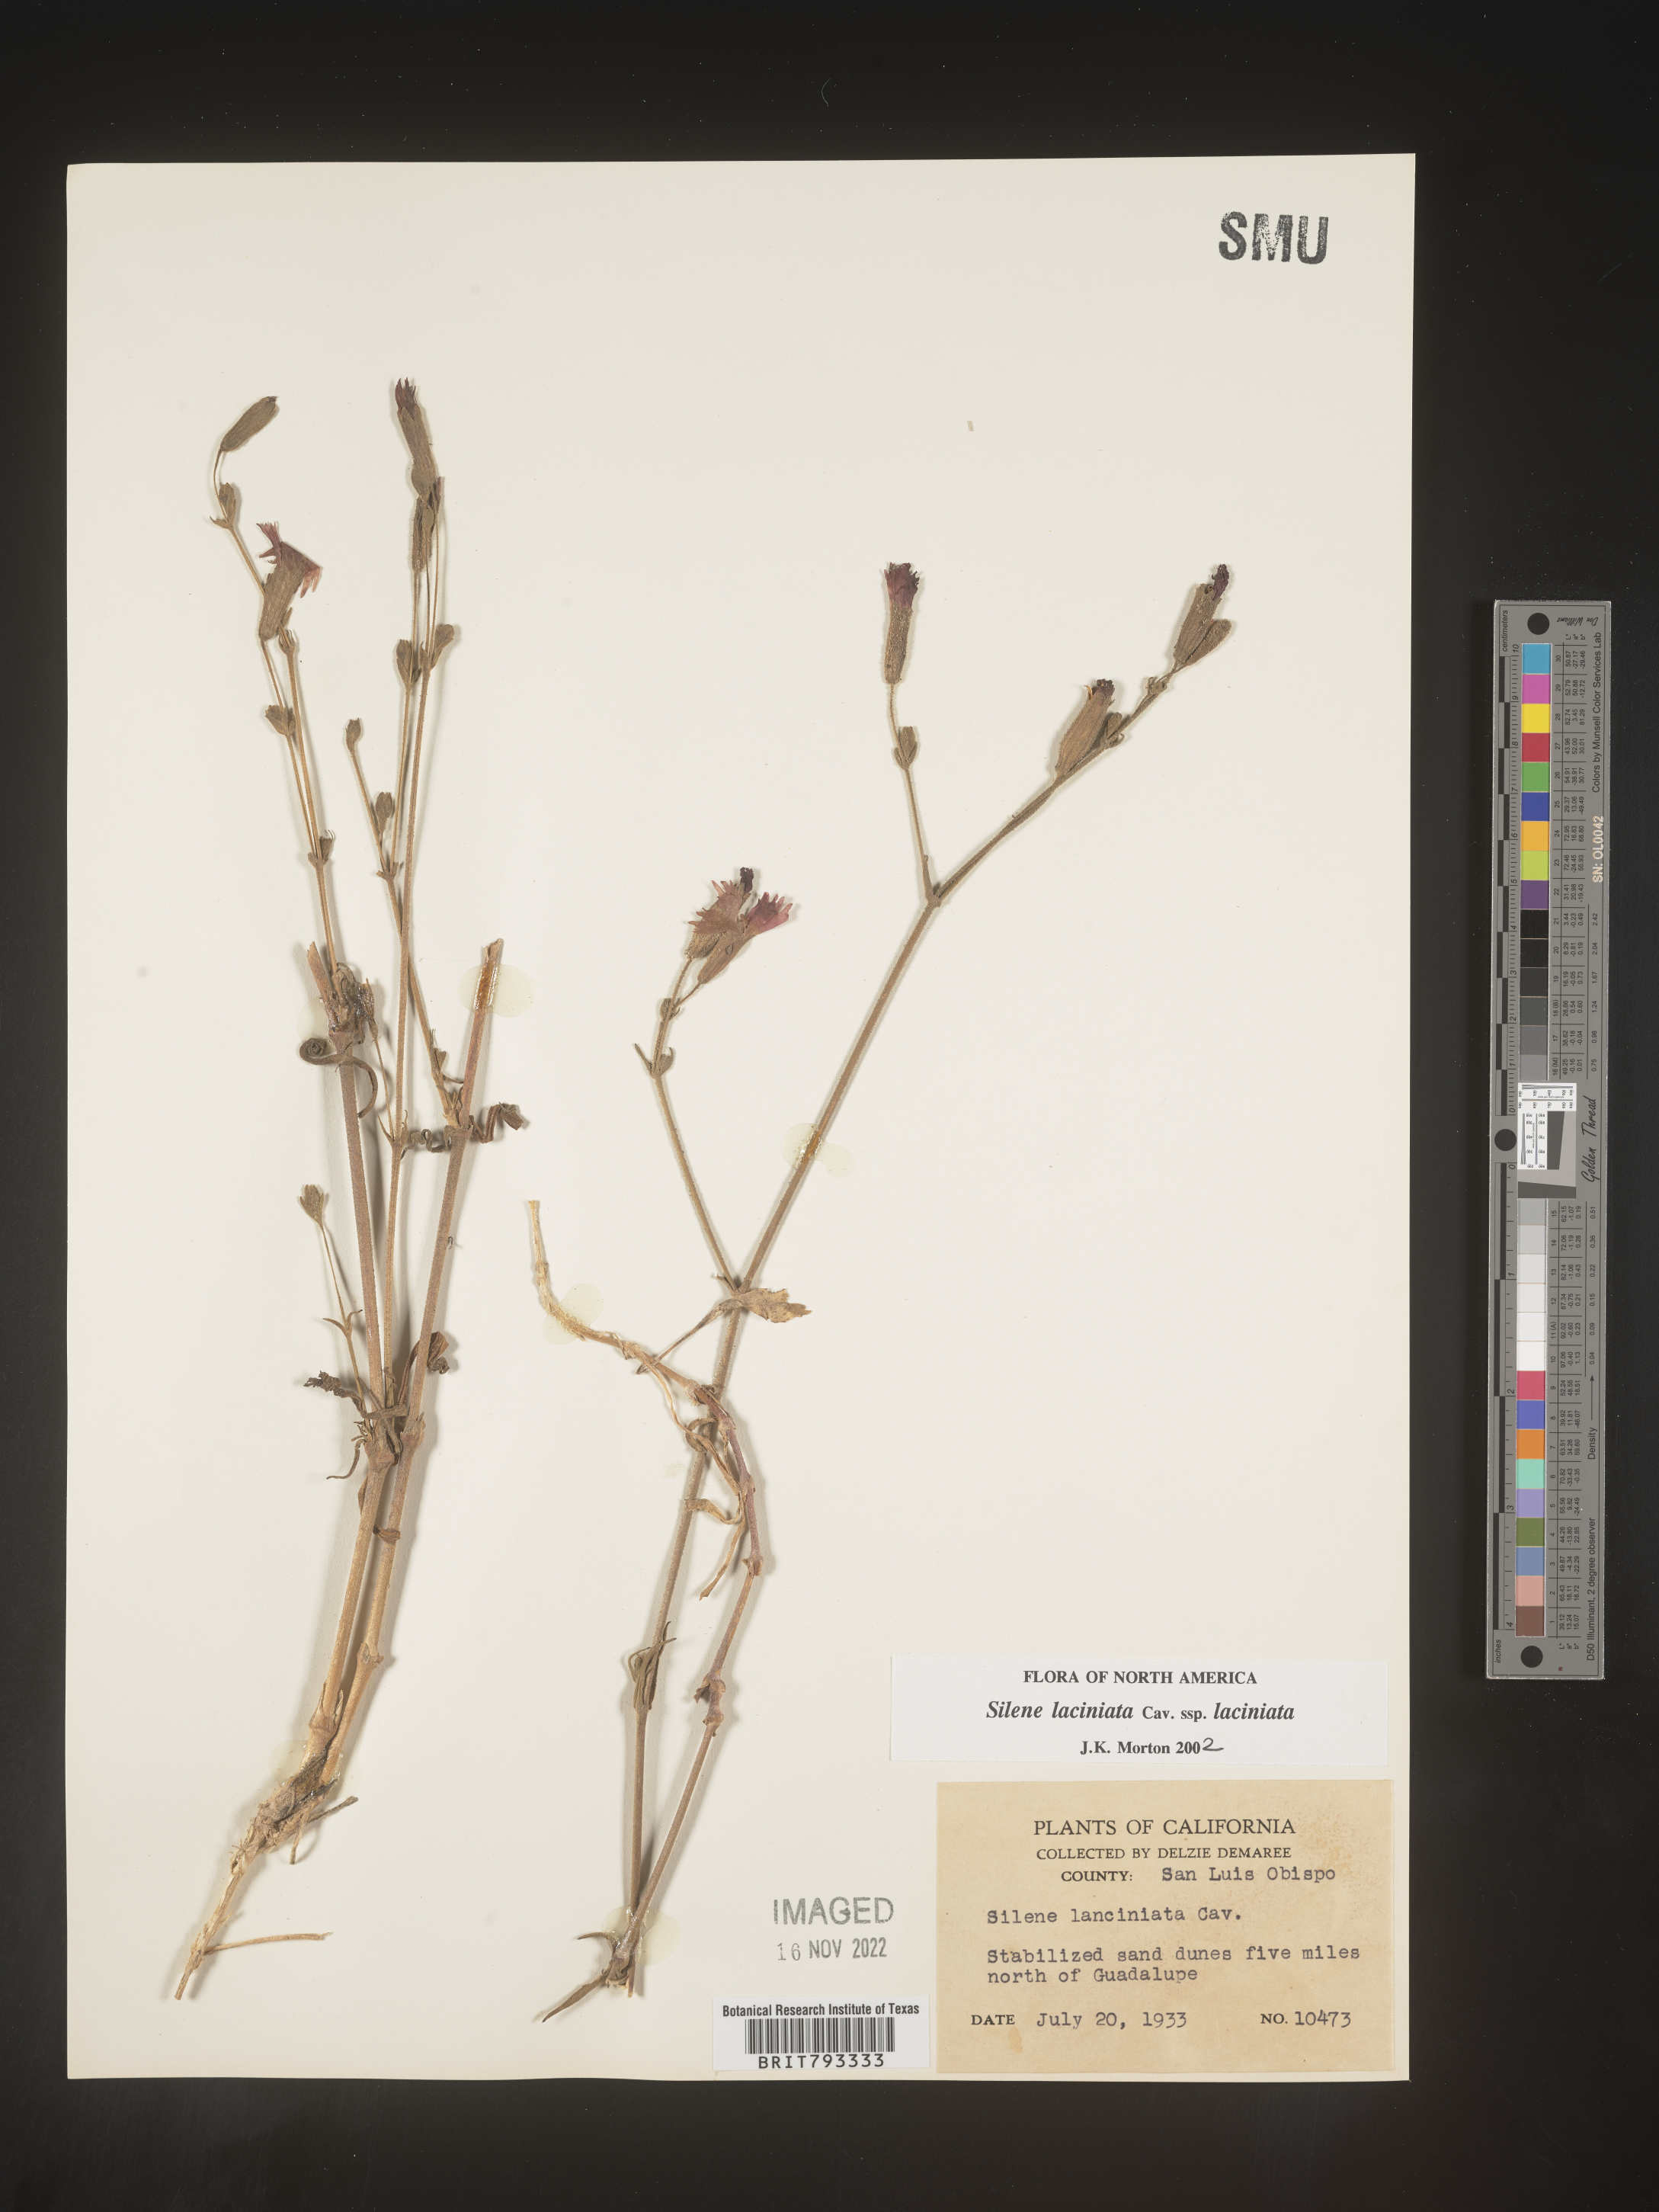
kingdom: Plantae
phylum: Tracheophyta
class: Magnoliopsida
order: Caryophyllales
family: Caryophyllaceae
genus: Silene
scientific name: Silene laciniata
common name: Indian-pink
